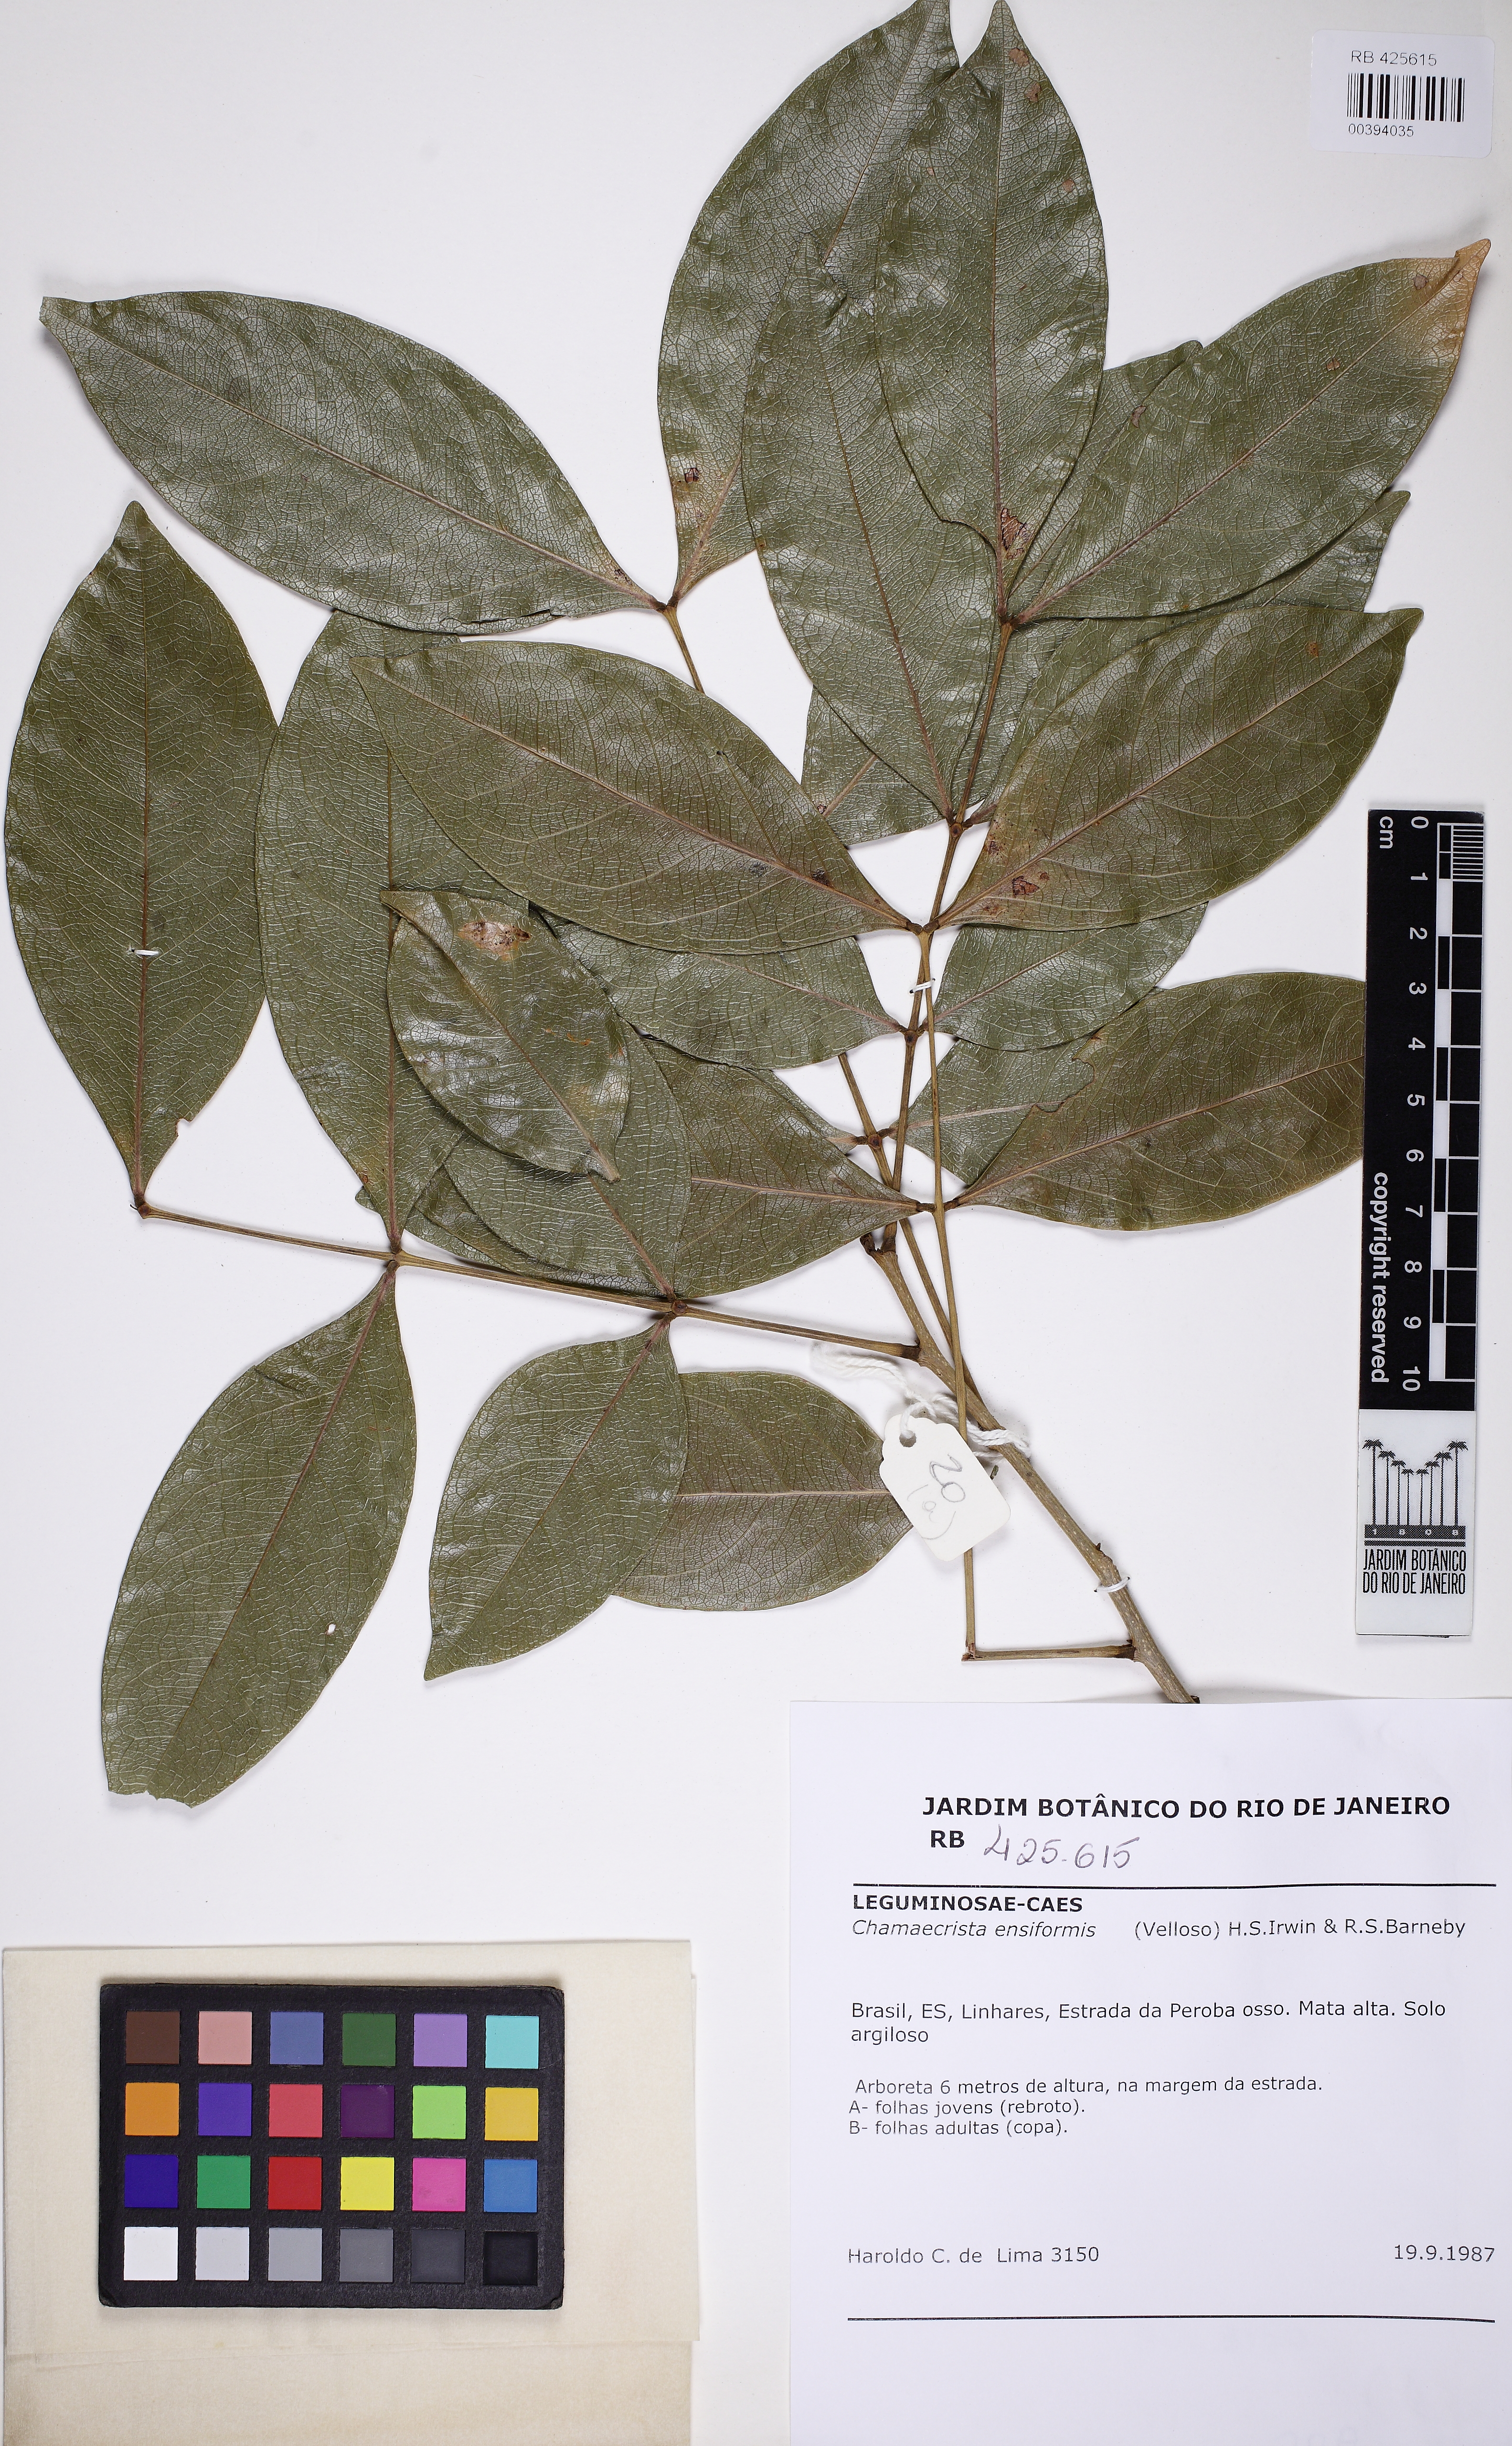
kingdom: Plantae
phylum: Tracheophyta
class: Magnoliopsida
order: Fabales
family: Fabaceae
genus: Chamaecrista
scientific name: Chamaecrista ensiformis
